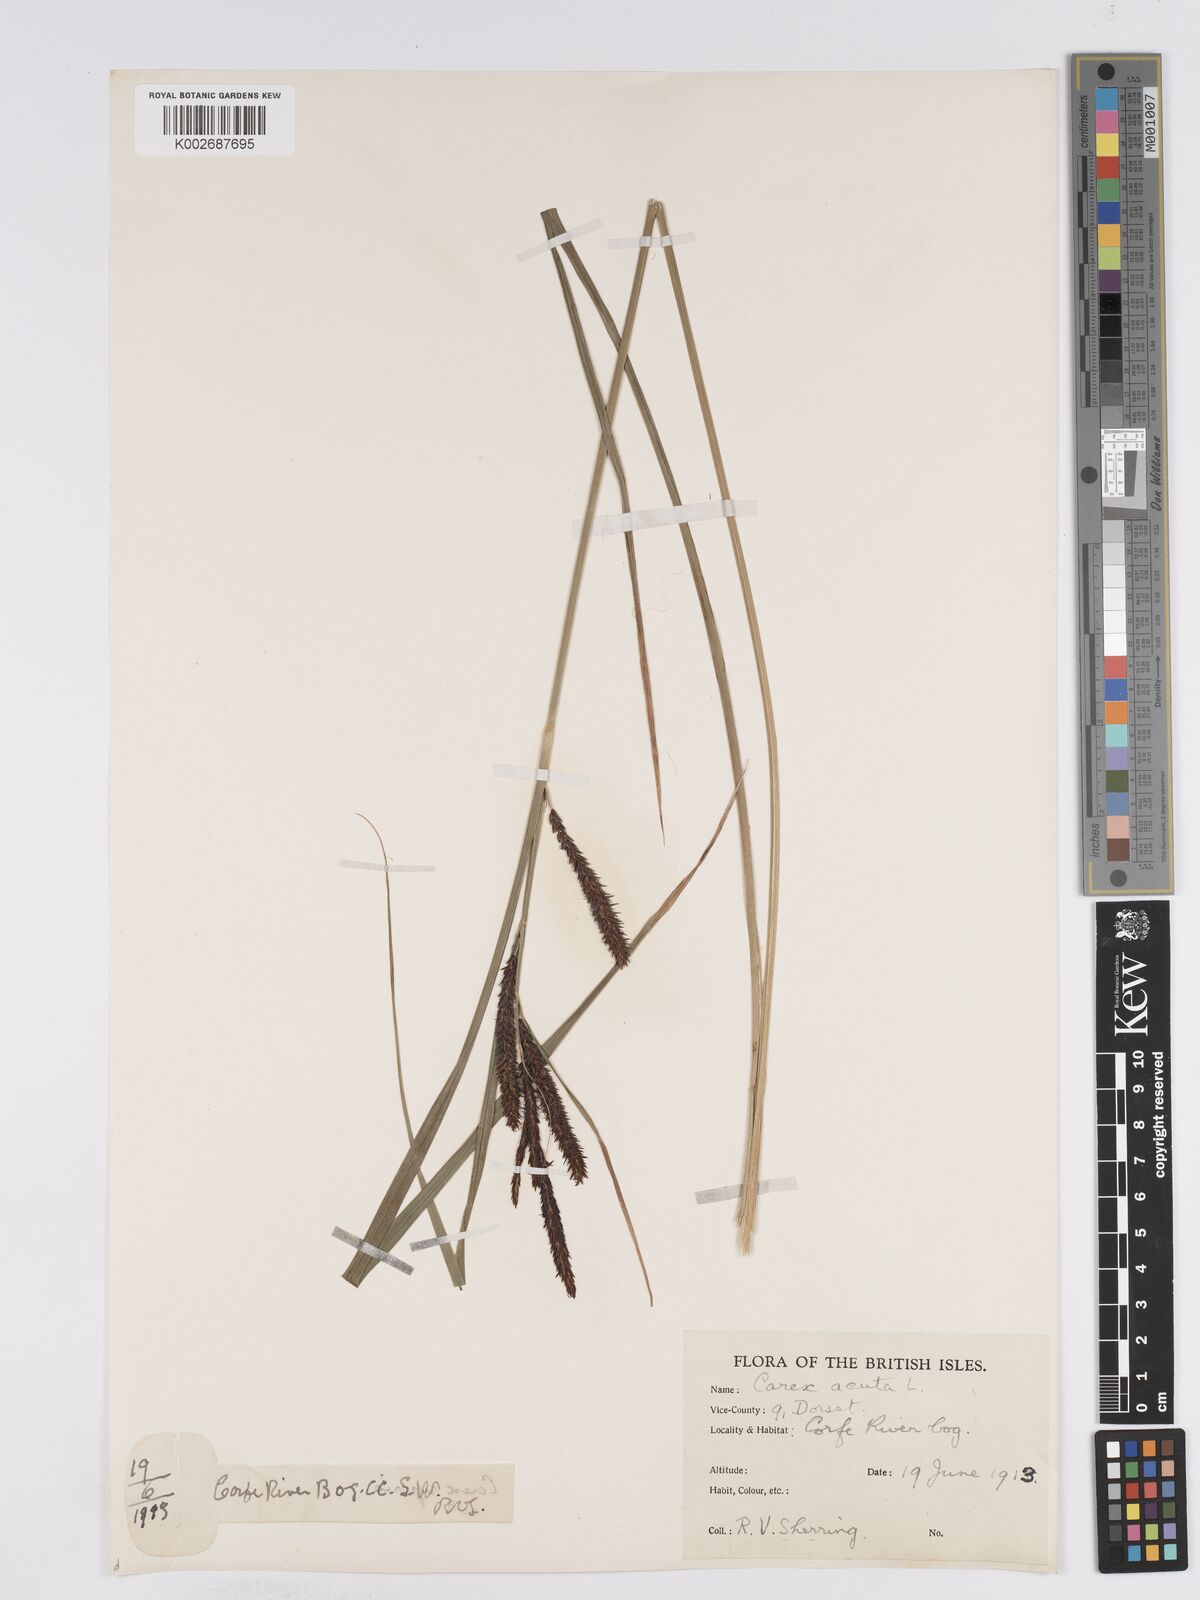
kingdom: Plantae
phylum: Tracheophyta
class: Liliopsida
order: Poales
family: Cyperaceae
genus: Carex
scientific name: Carex acuta
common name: Slender tufted-sedge
